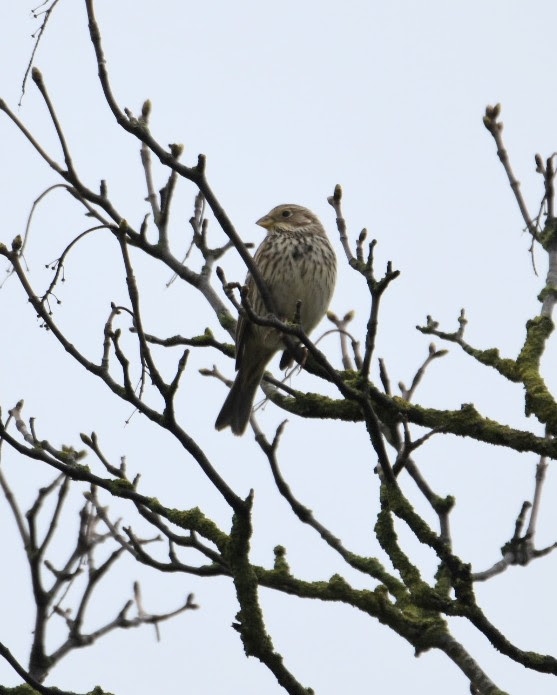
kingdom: Animalia
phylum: Chordata
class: Aves
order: Passeriformes
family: Emberizidae
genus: Emberiza
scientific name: Emberiza calandra
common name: Bomlærke
